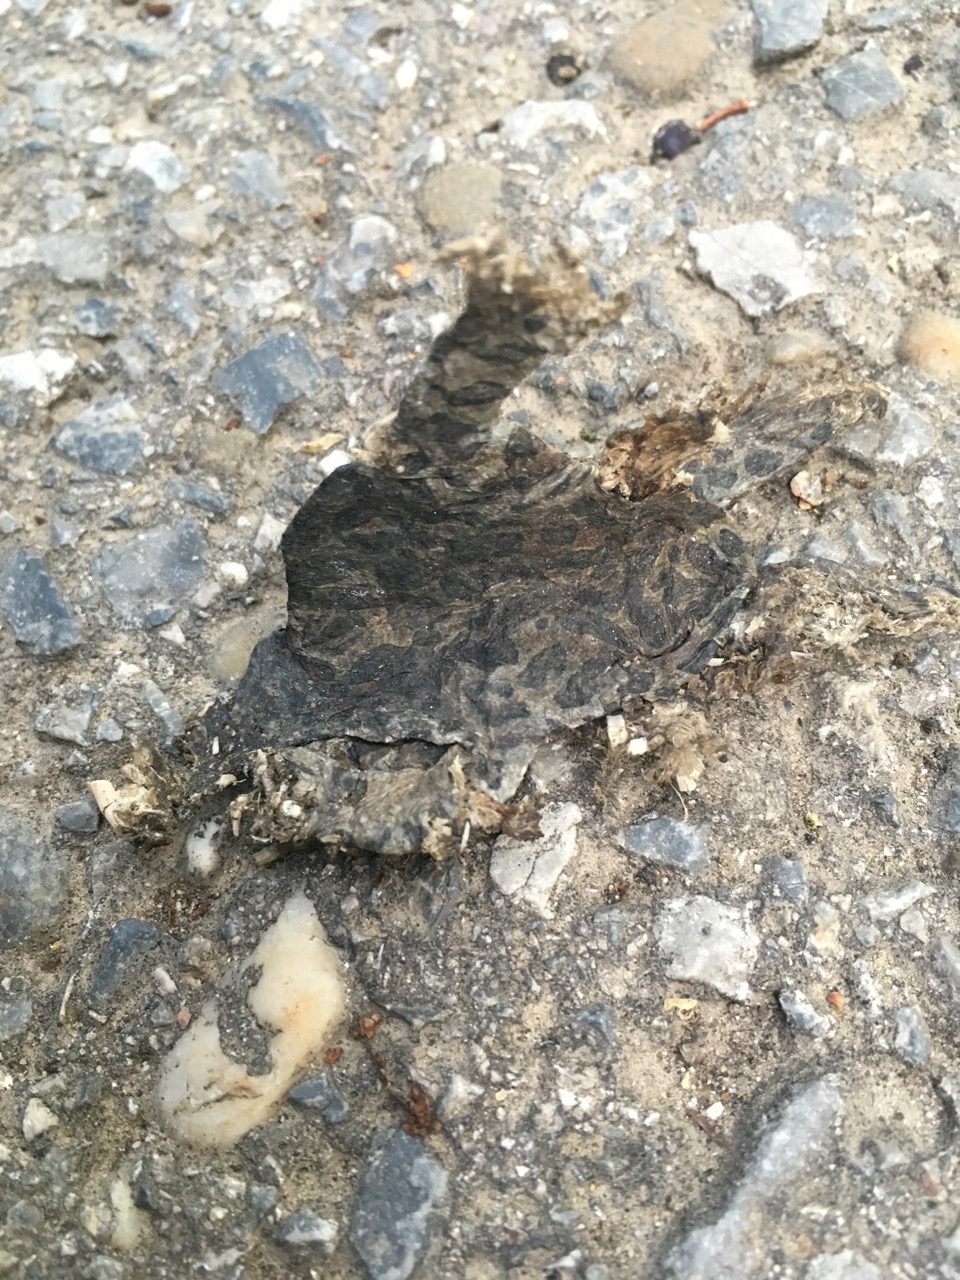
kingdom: Animalia
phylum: Chordata
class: Amphibia
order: Anura
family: Bufonidae
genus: Bufotes
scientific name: Bufotes viridis
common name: European green toad
